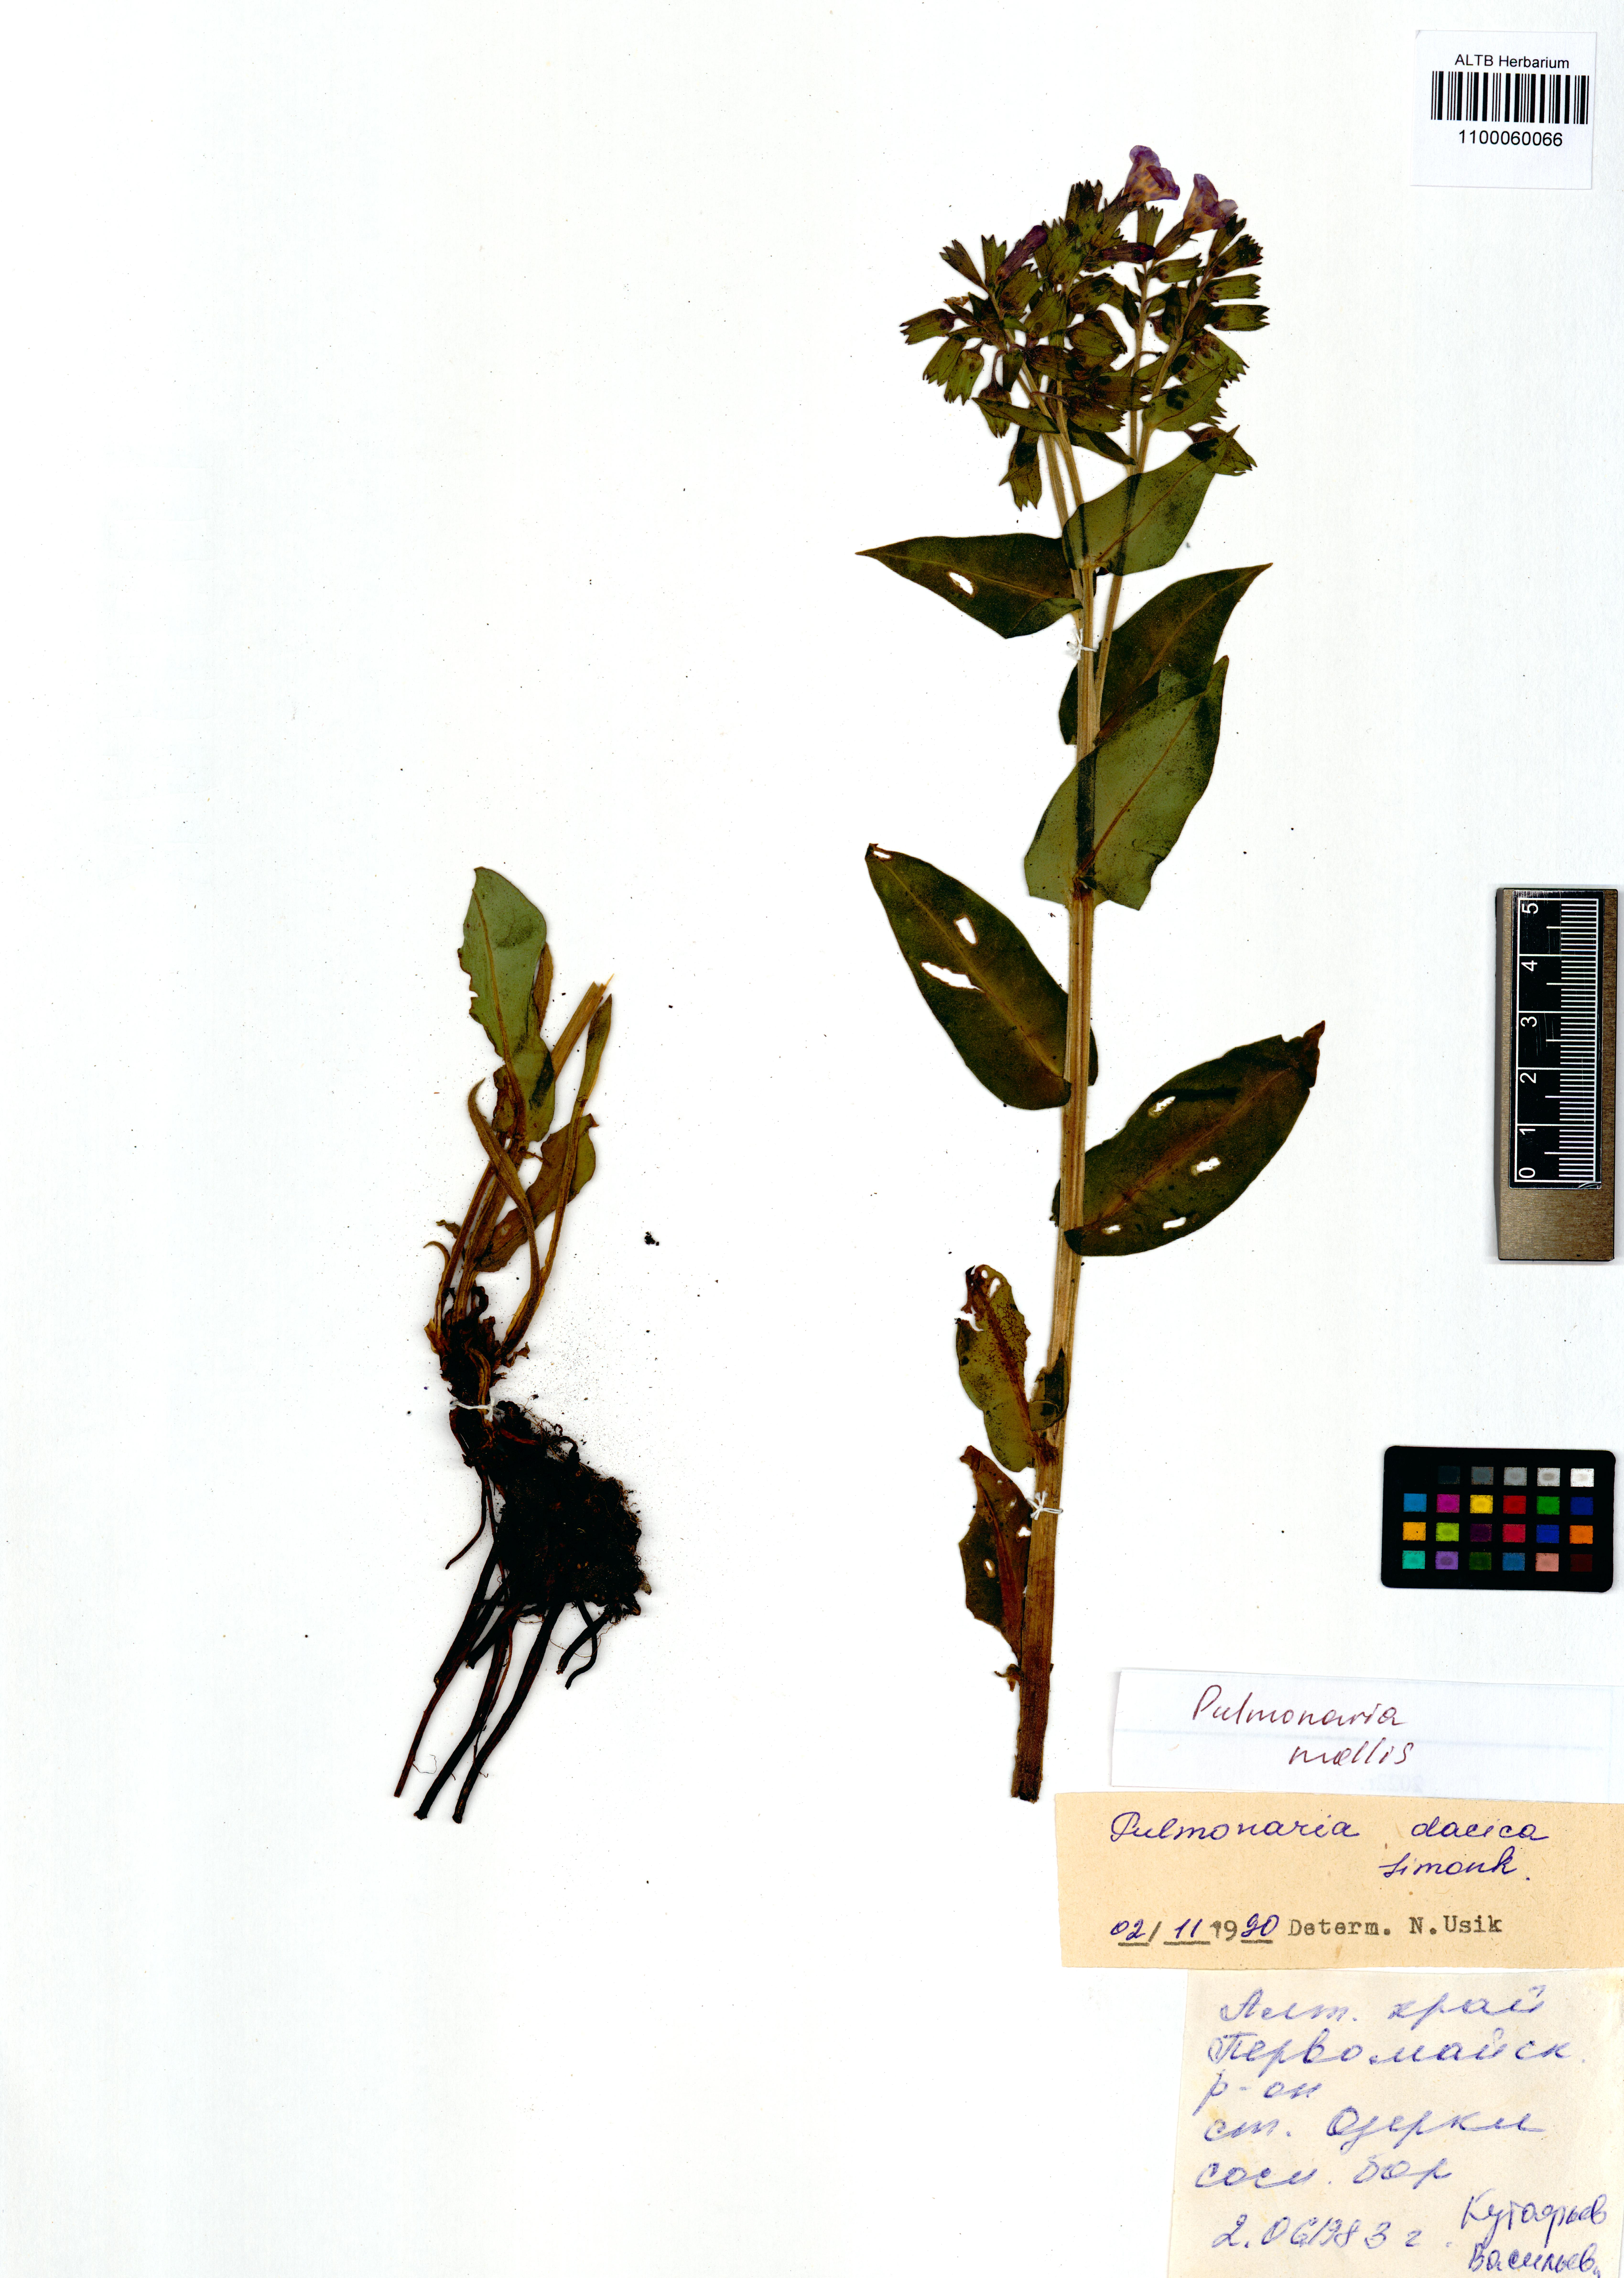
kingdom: Plantae
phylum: Tracheophyta
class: Magnoliopsida
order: Boraginales
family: Boraginaceae
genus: Pulmonaria
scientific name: Pulmonaria mollis
